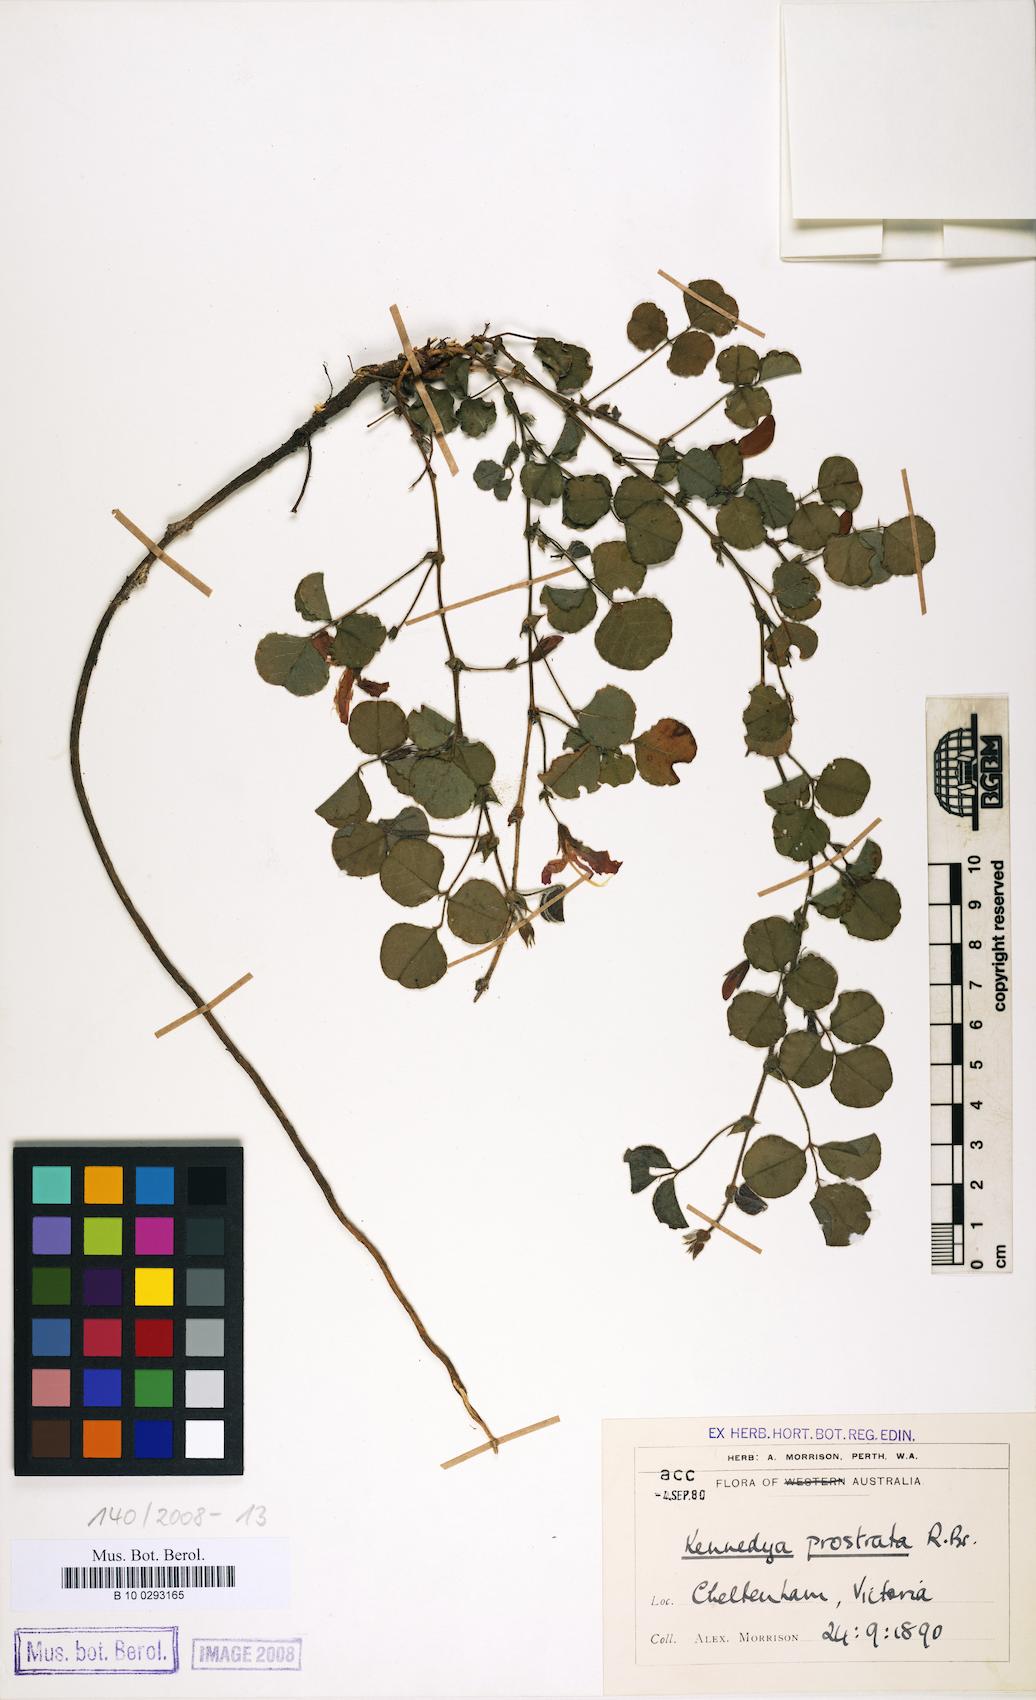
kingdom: Plantae
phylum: Tracheophyta
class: Magnoliopsida
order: Fabales
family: Fabaceae
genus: Kennedia
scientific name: Kennedia prostrata
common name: Running-postman
